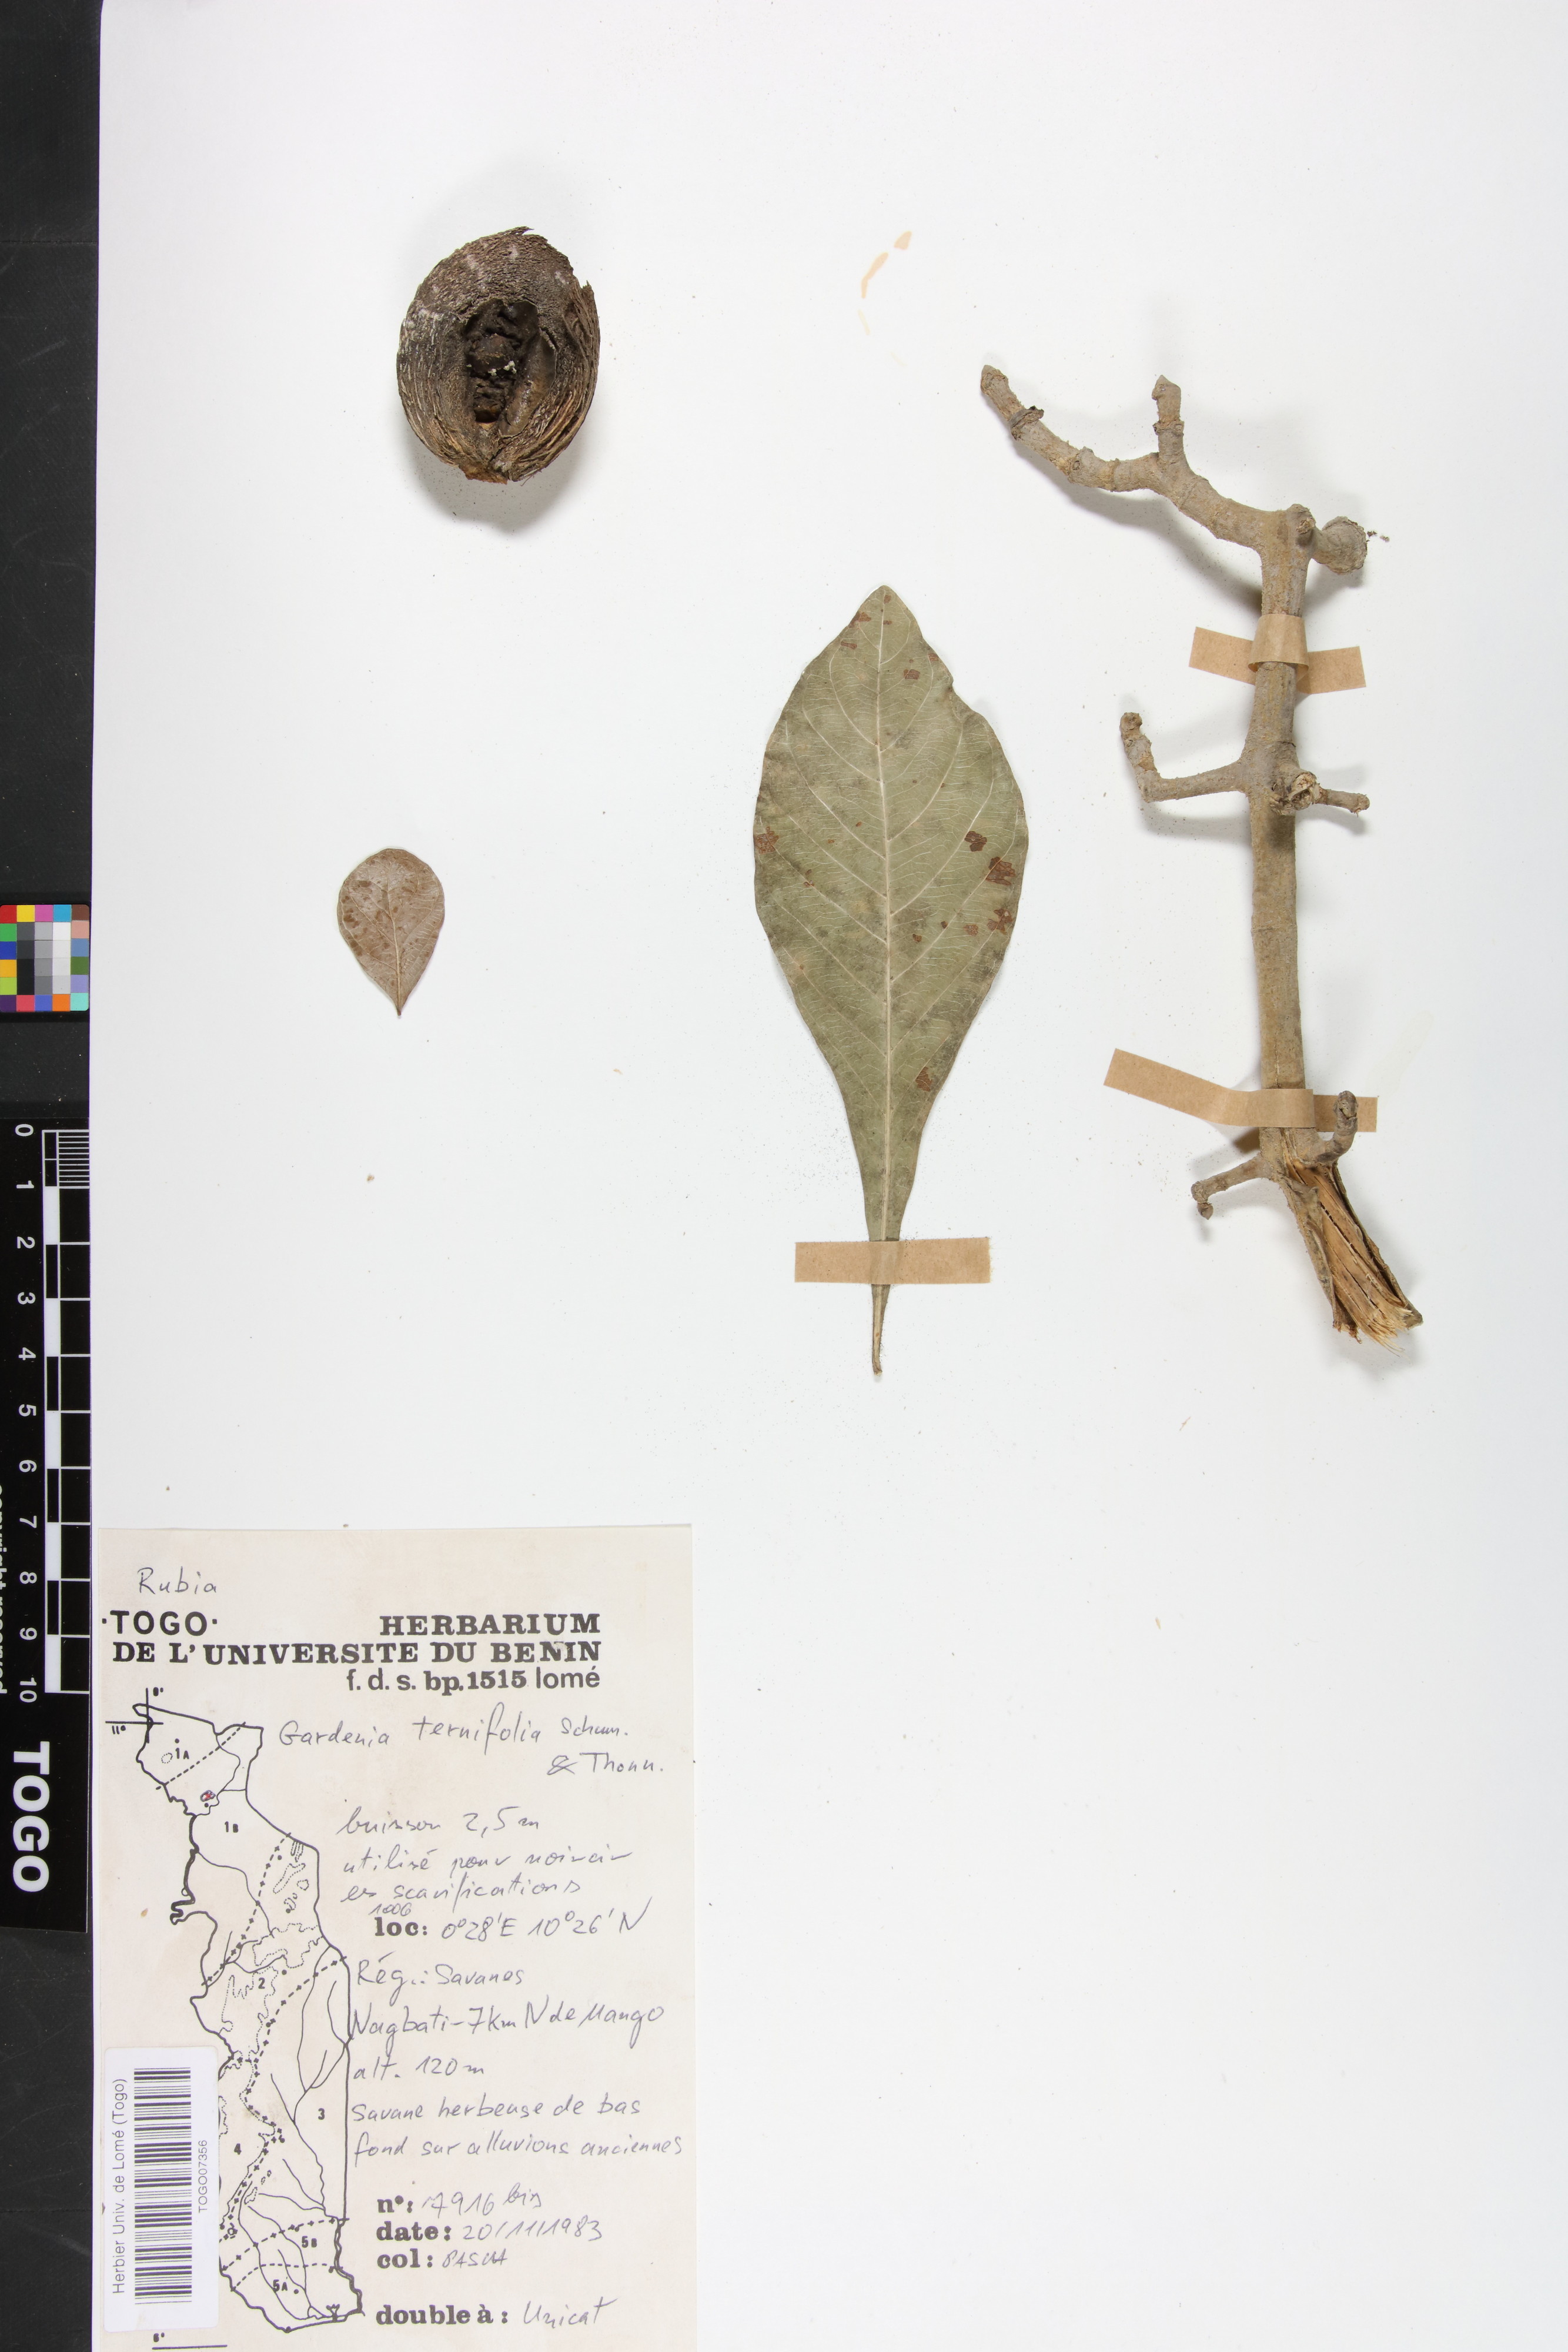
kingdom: Plantae
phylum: Tracheophyta
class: Magnoliopsida
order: Gentianales
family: Rubiaceae
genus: Gardenia
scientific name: Gardenia ternifolia
